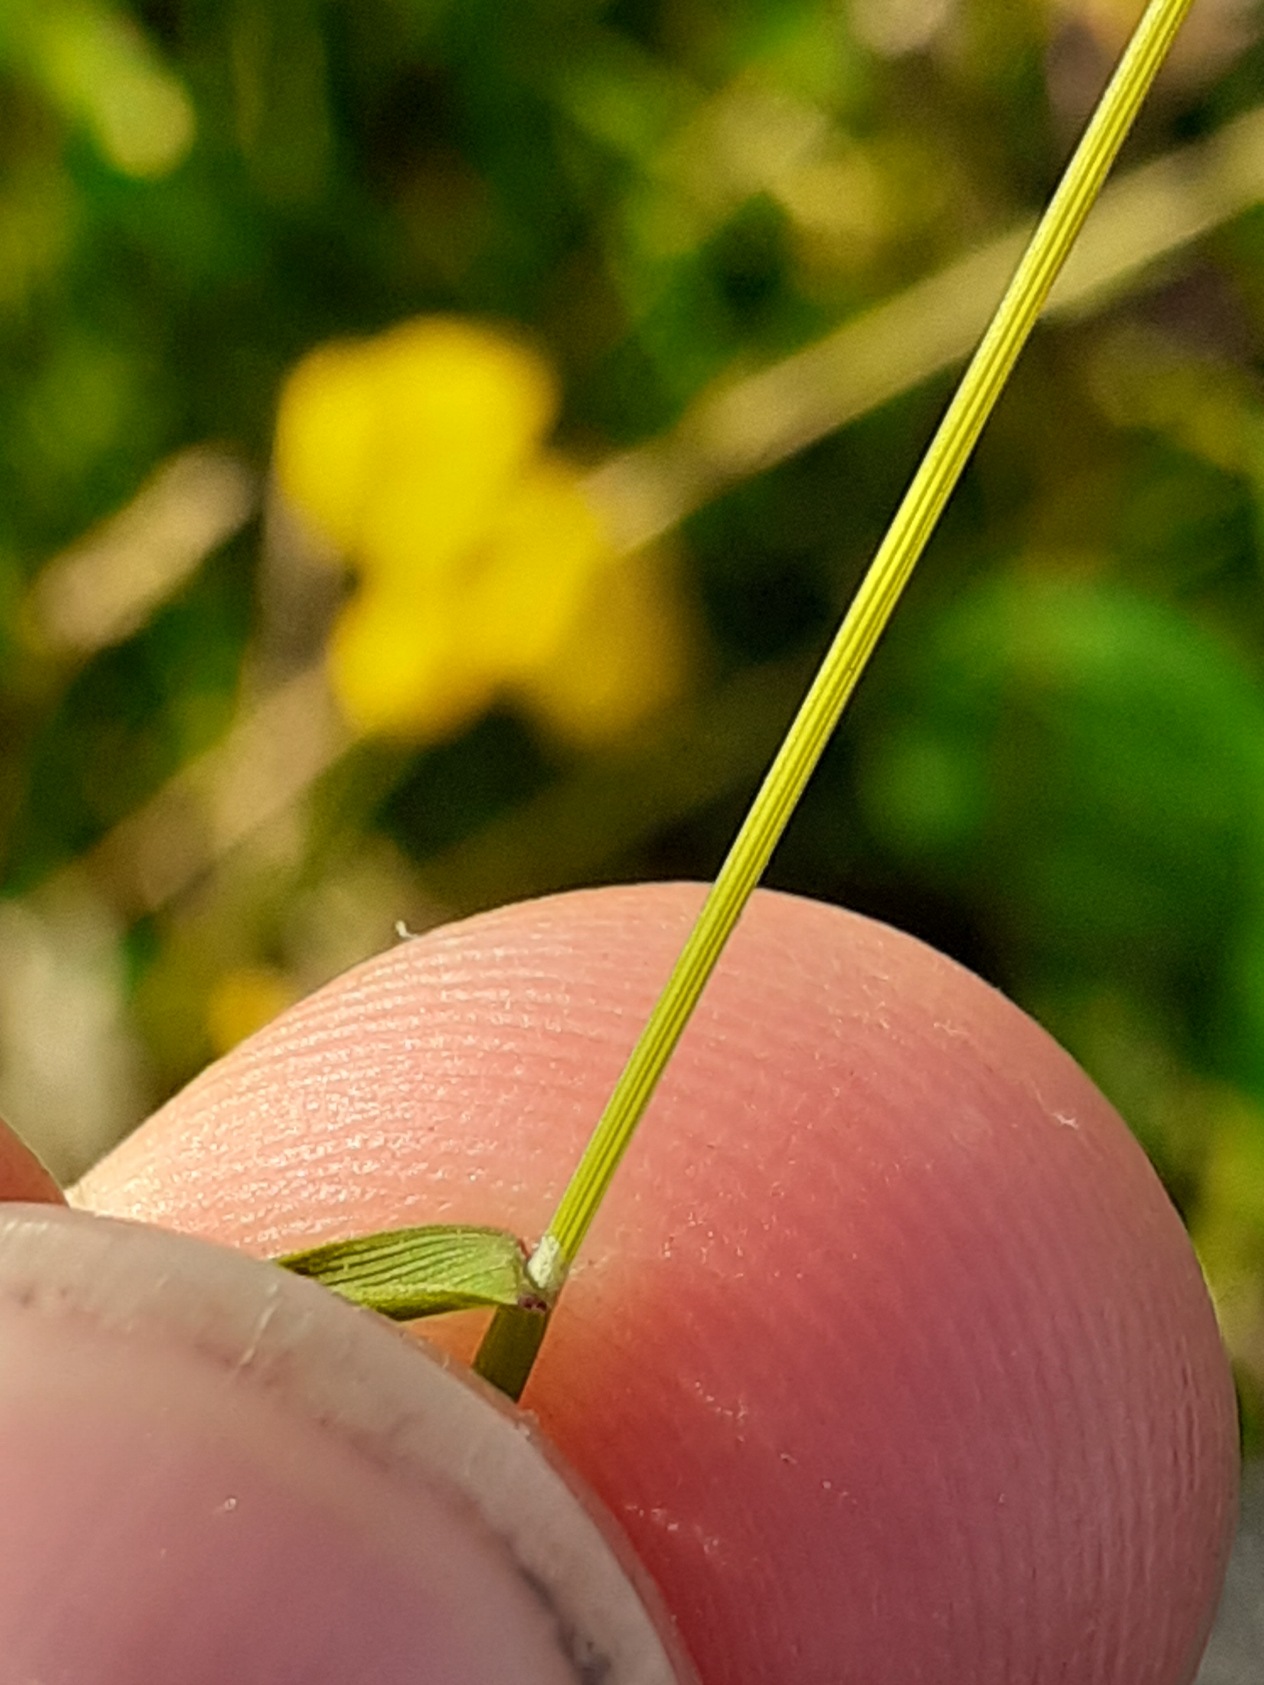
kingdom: Plantae
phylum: Tracheophyta
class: Liliopsida
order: Poales
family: Poaceae
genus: Agrostis
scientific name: Agrostis capillaris
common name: Almindelig hvene
